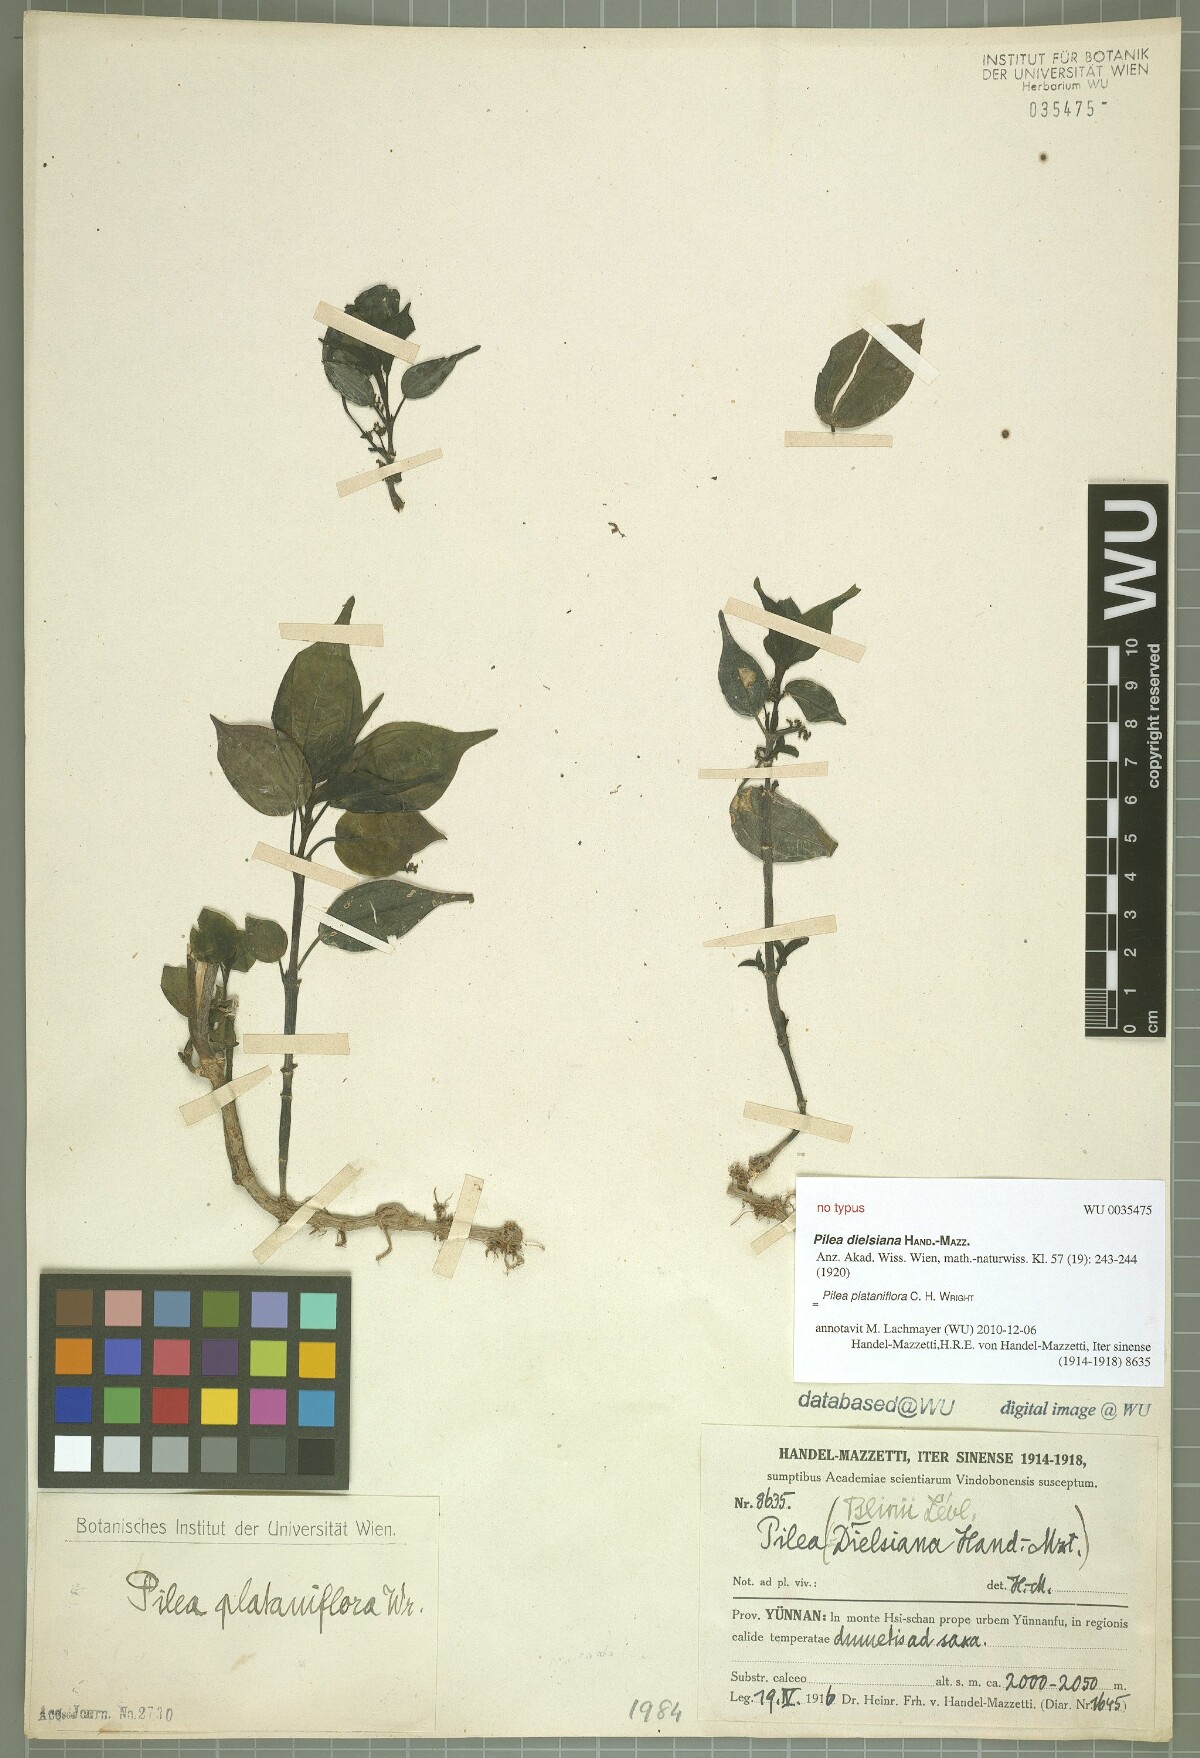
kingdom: Plantae
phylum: Tracheophyta
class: Magnoliopsida
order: Rosales
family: Urticaceae
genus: Pilea
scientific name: Pilea plataniflora
